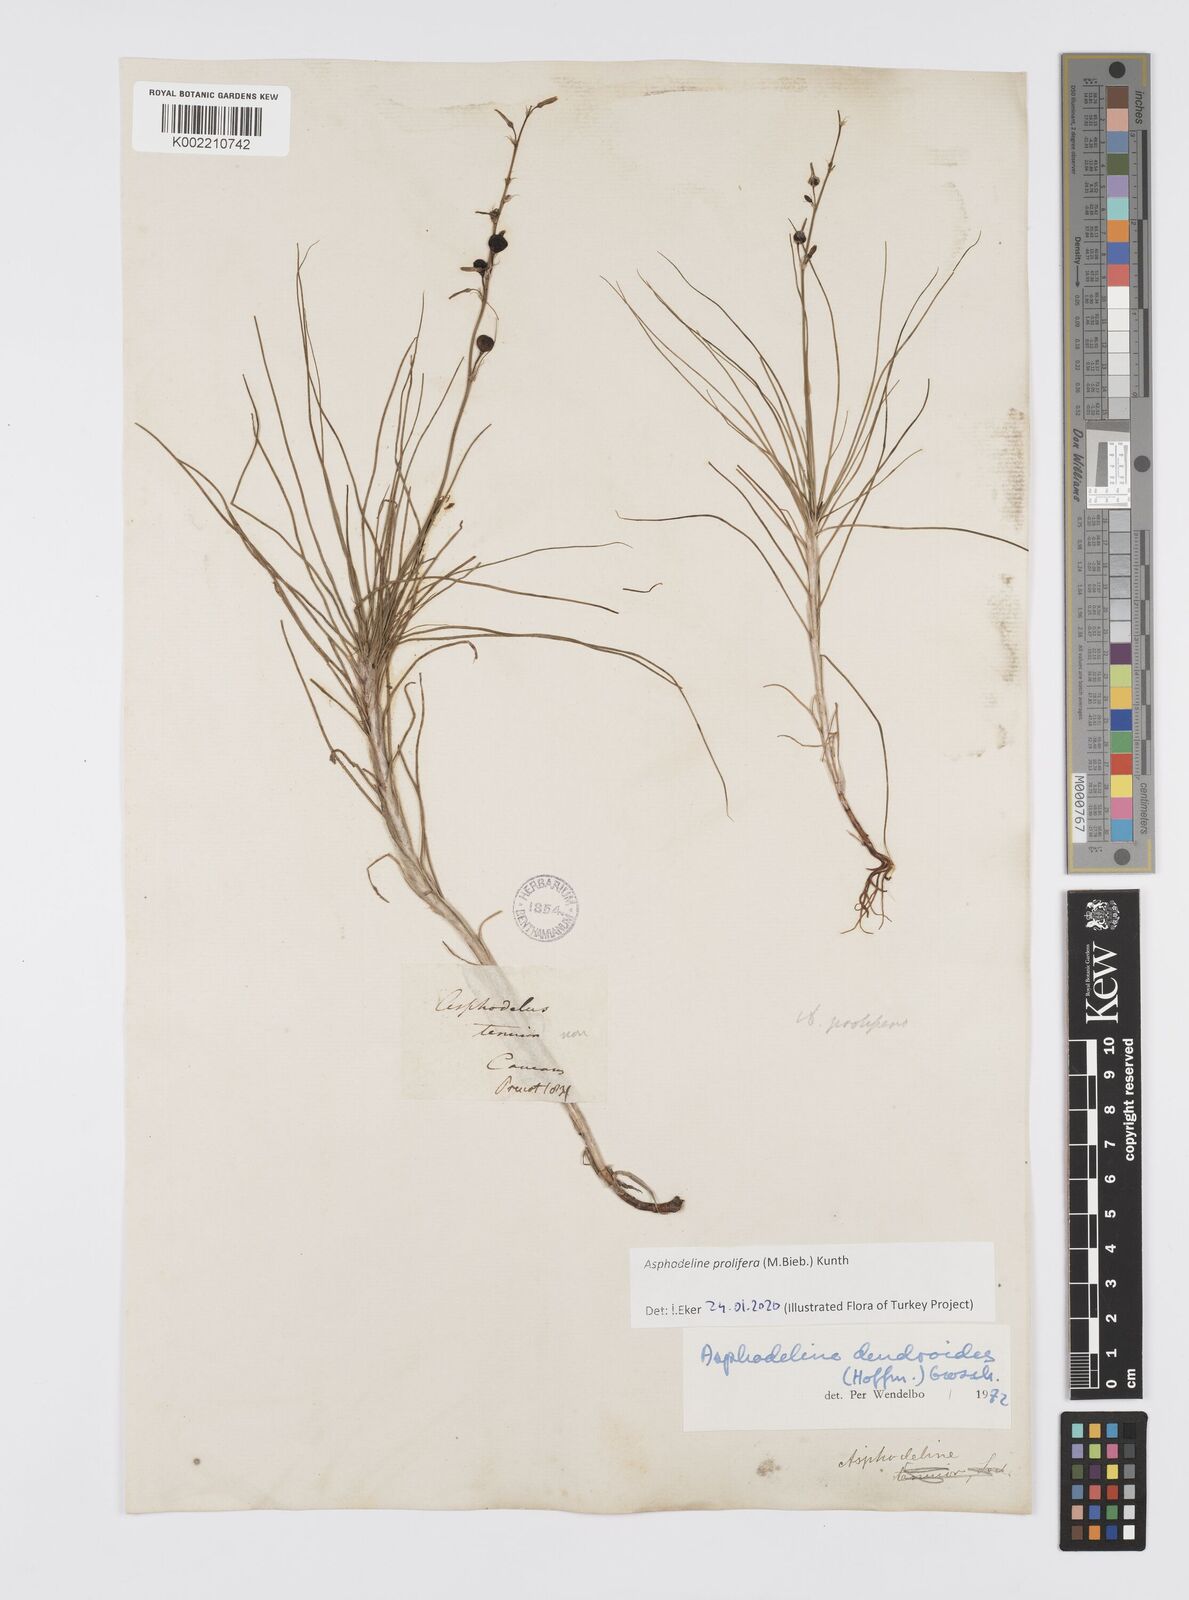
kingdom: Plantae
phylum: Tracheophyta
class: Liliopsida
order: Asparagales
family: Asphodelaceae
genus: Asphodeline
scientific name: Asphodeline prolifera
